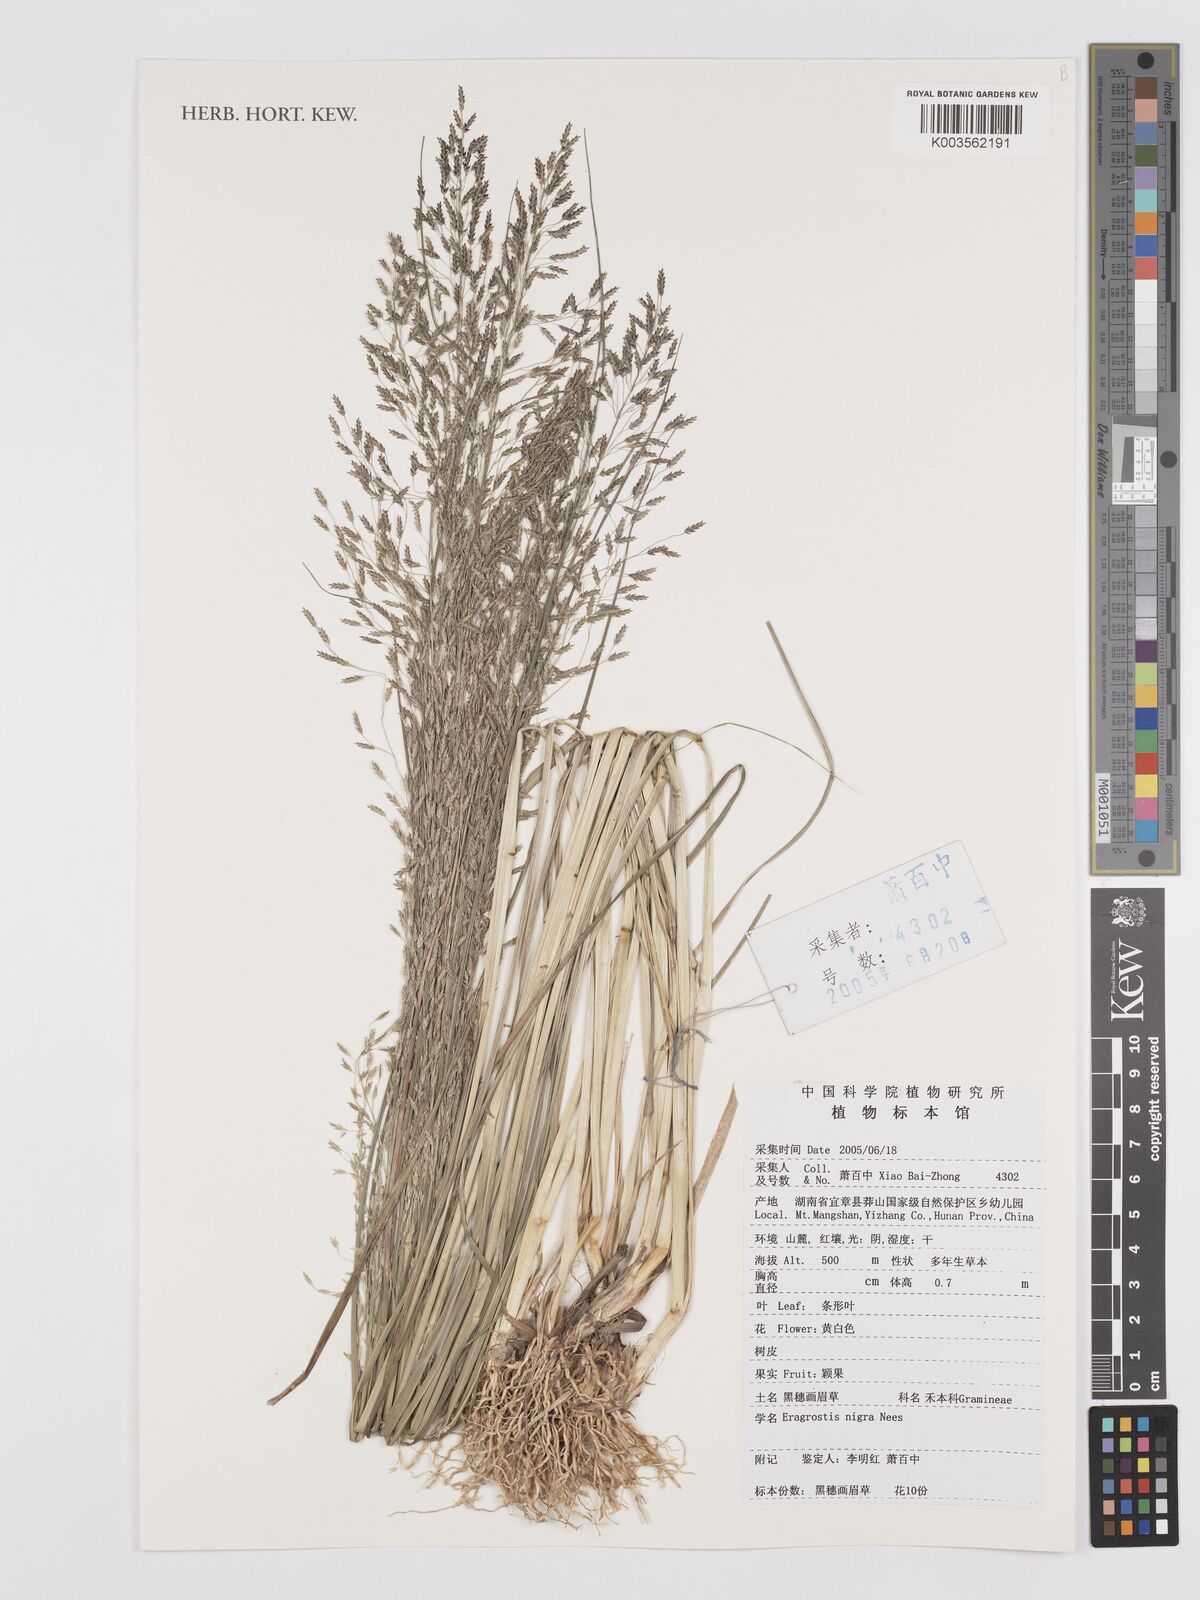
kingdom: Plantae
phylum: Tracheophyta
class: Liliopsida
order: Poales
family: Poaceae
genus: Eragrostis
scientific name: Eragrostis nigra
